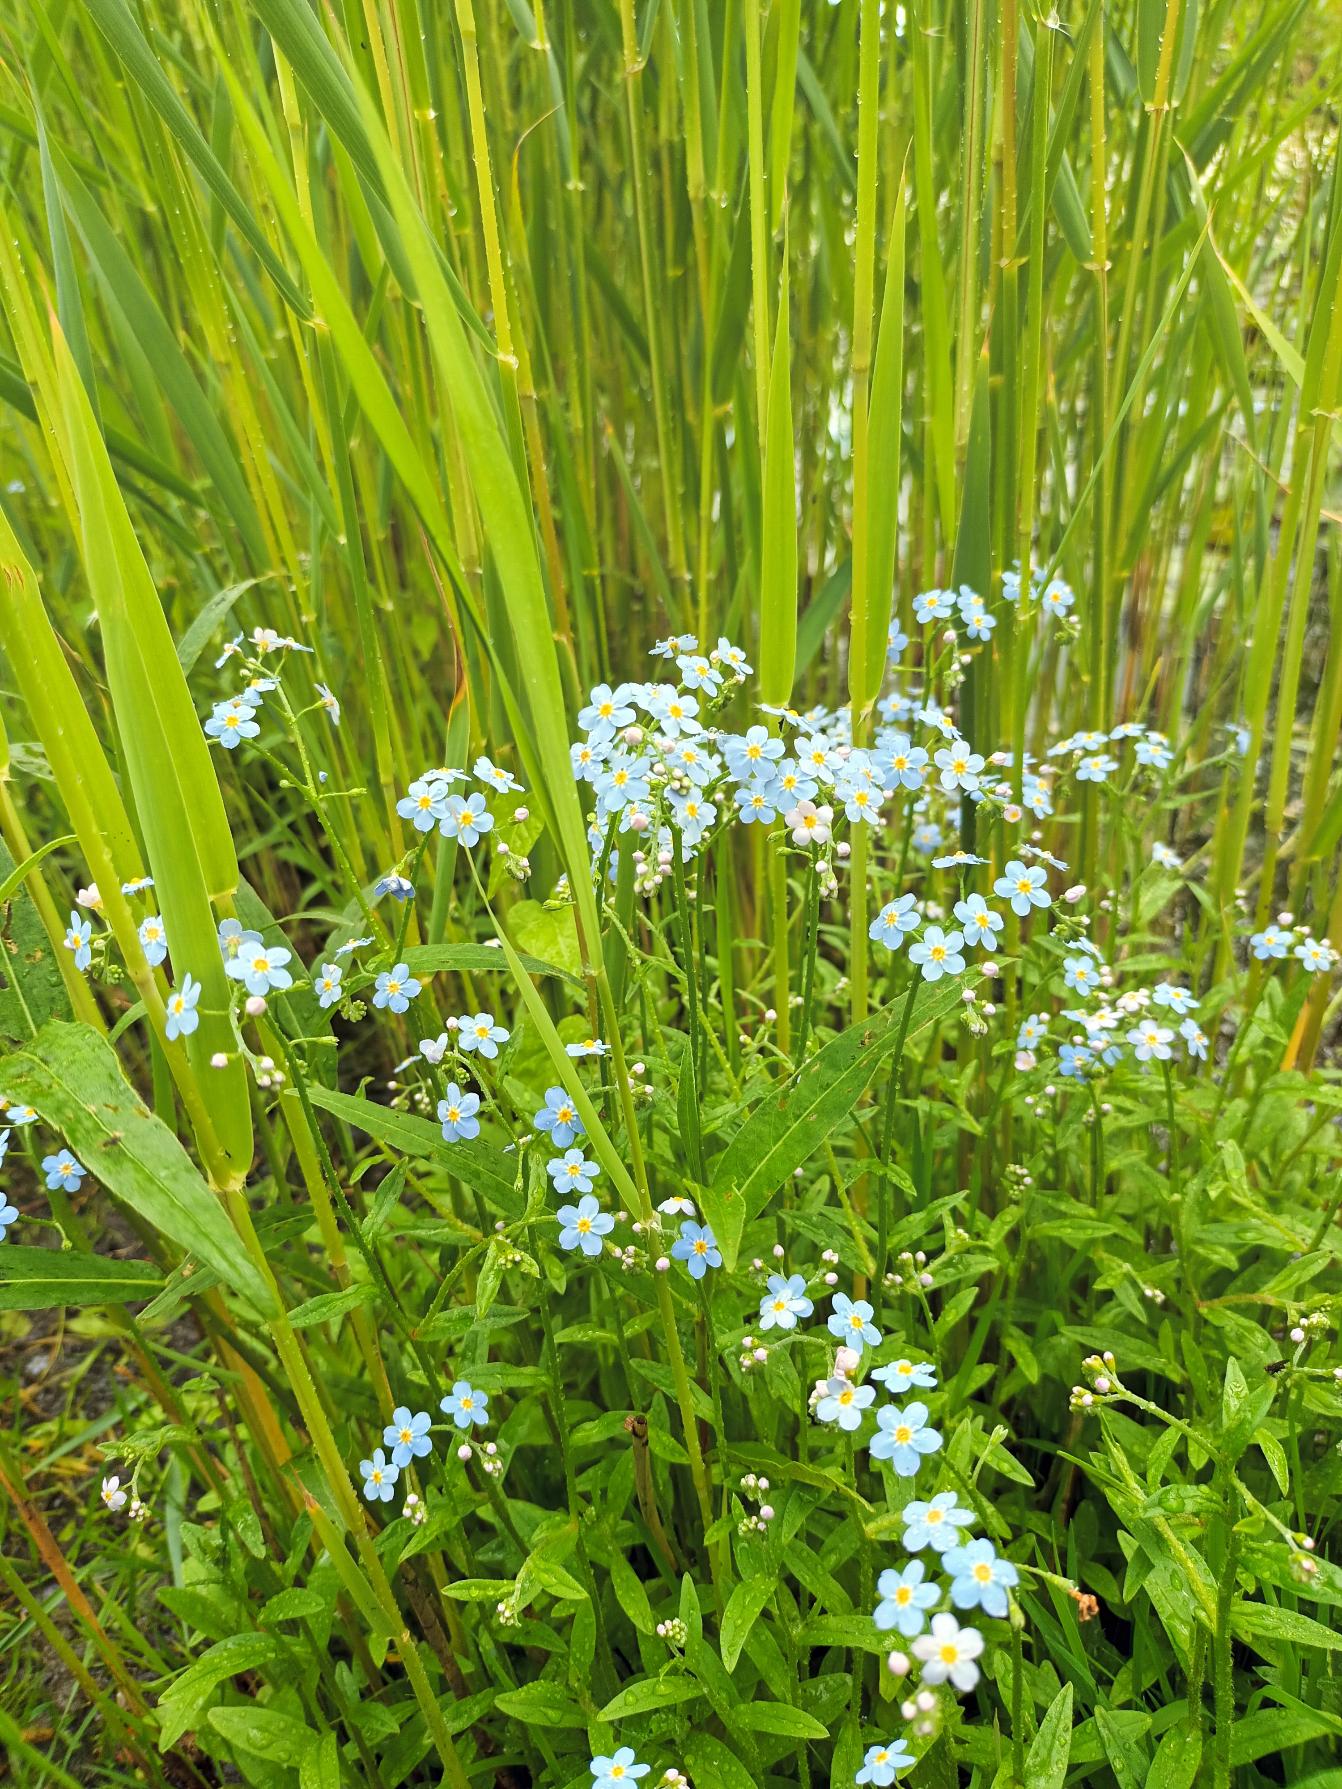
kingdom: Plantae
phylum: Tracheophyta
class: Magnoliopsida
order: Boraginales
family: Boraginaceae
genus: Myosotis
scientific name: Myosotis scorpioides
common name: Eng-forglemmigej
